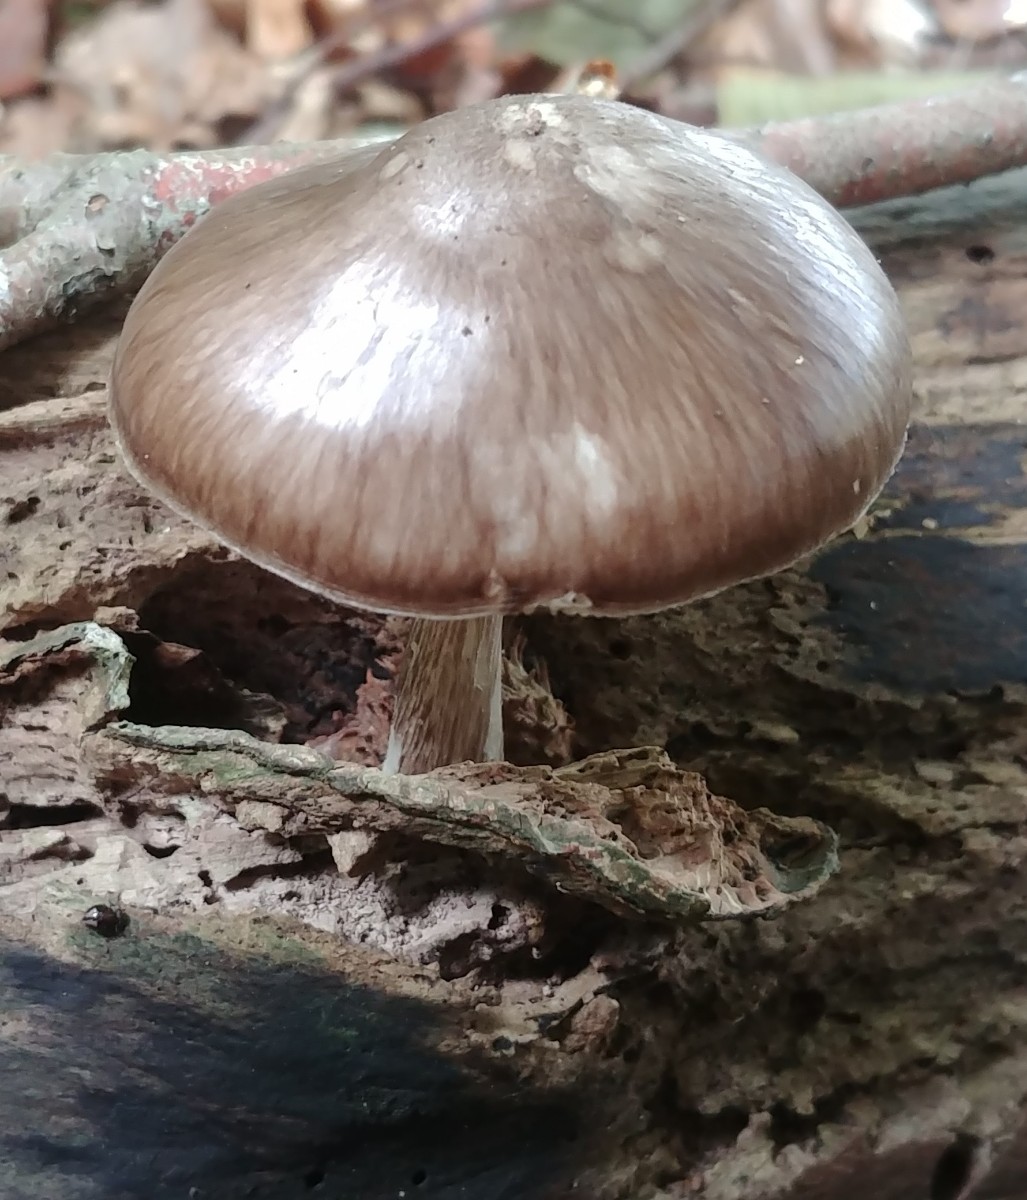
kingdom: Fungi
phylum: Basidiomycota
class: Agaricomycetes
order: Agaricales
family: Pluteaceae
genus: Pluteus
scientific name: Pluteus cervinus
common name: sodfarvet skærmhat
